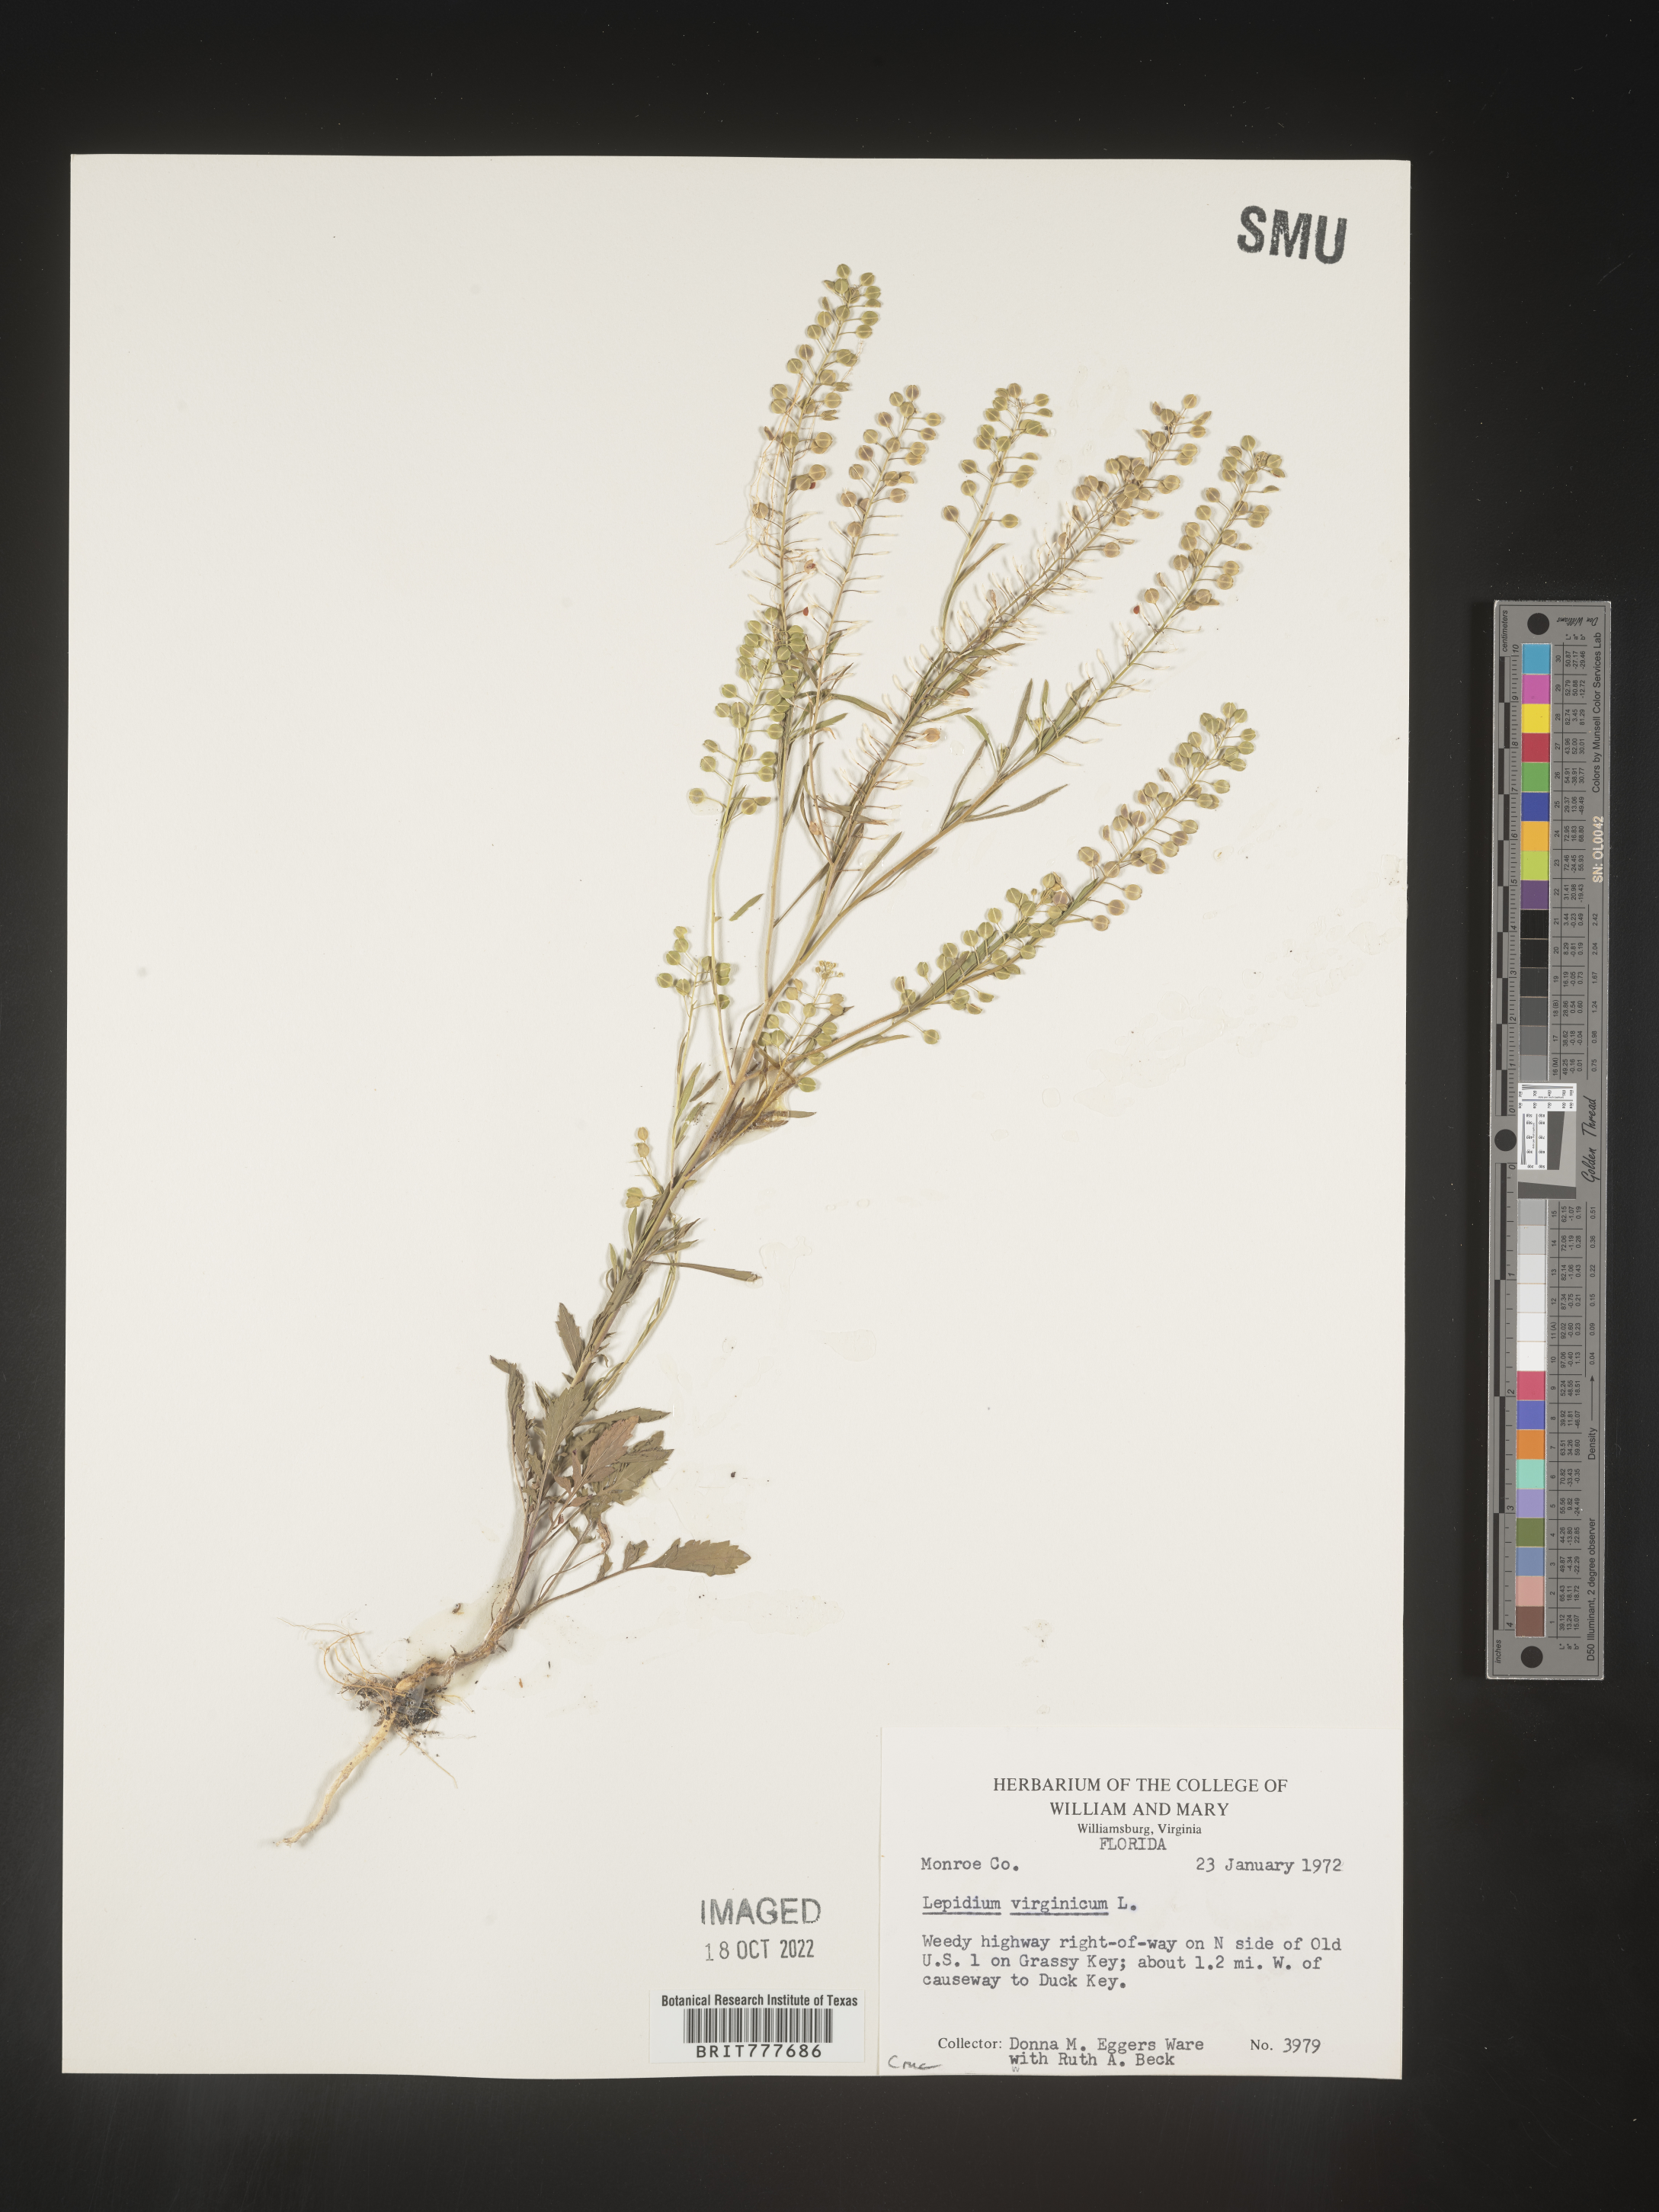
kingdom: Plantae
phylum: Tracheophyta
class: Magnoliopsida
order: Brassicales
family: Brassicaceae
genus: Lepidium
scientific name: Lepidium virginicum
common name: Least pepperwort
